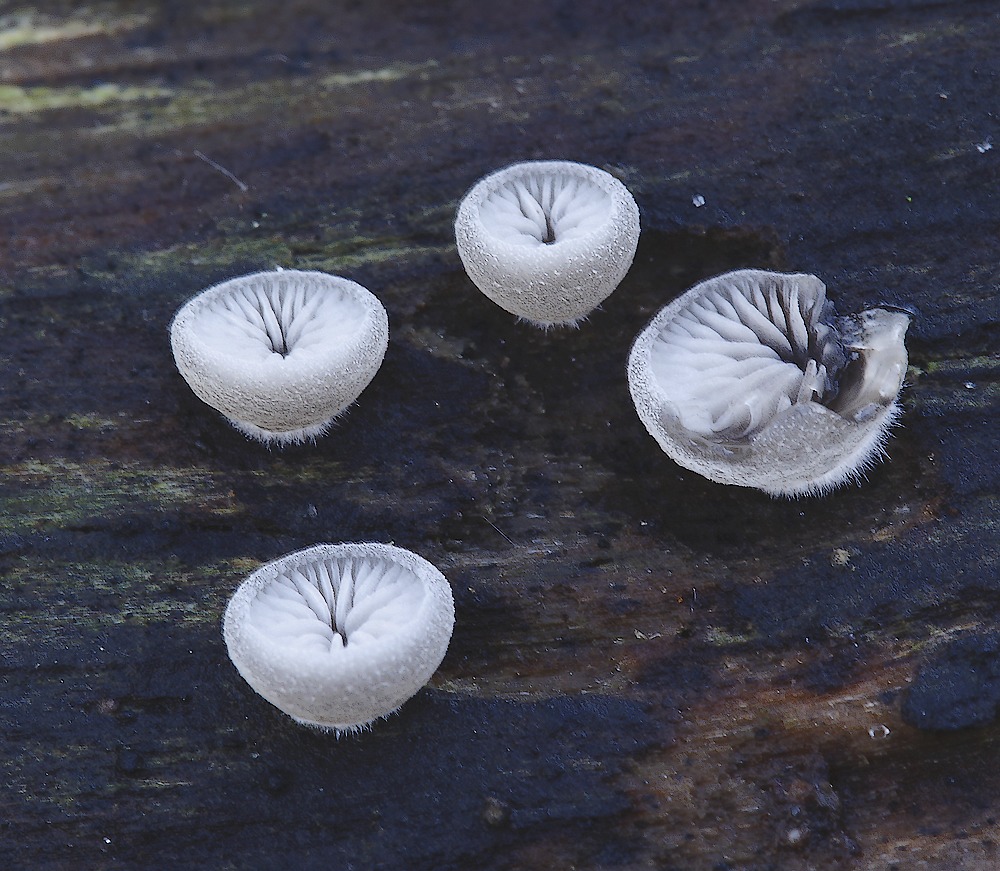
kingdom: Fungi
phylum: Basidiomycota
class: Agaricomycetes
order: Agaricales
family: Pleurotaceae
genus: Resupinatus
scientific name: Resupinatus applicatus
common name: lysfiltet barkhat
